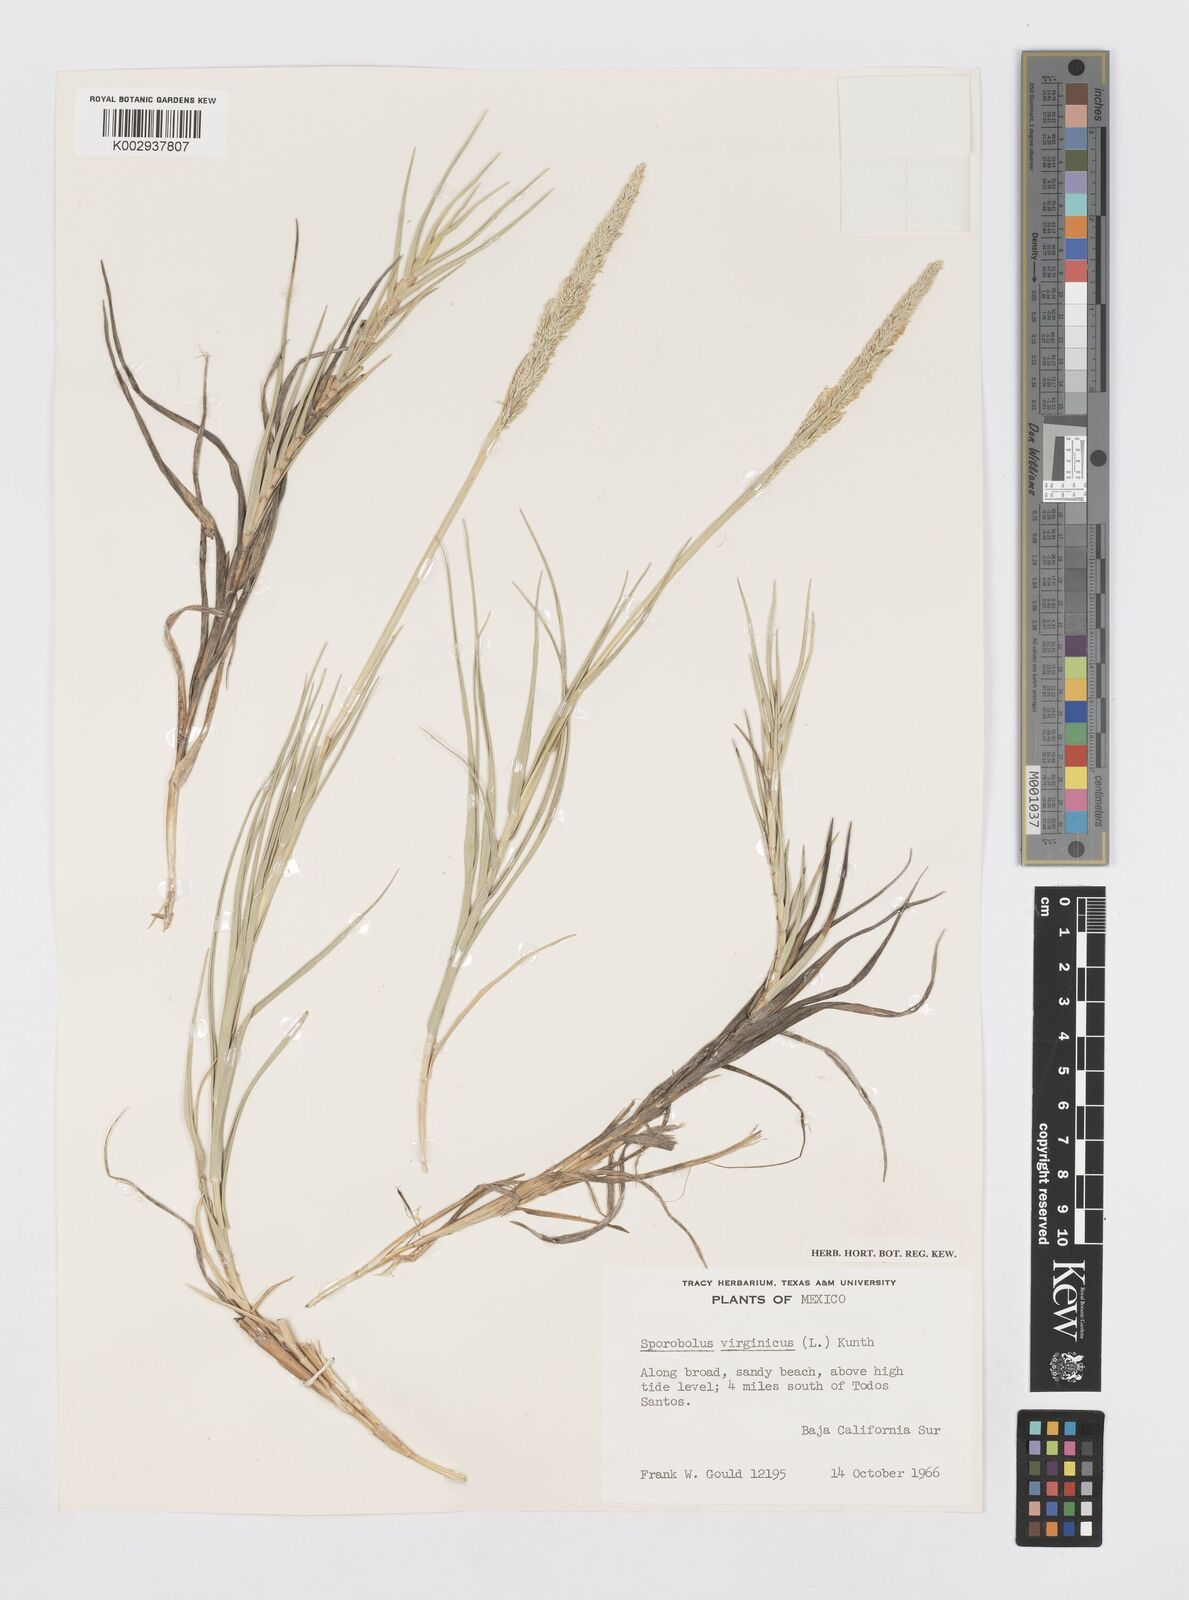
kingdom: Plantae
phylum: Tracheophyta
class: Liliopsida
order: Poales
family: Poaceae
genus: Sporobolus
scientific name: Sporobolus virginicus
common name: Beach dropseed
